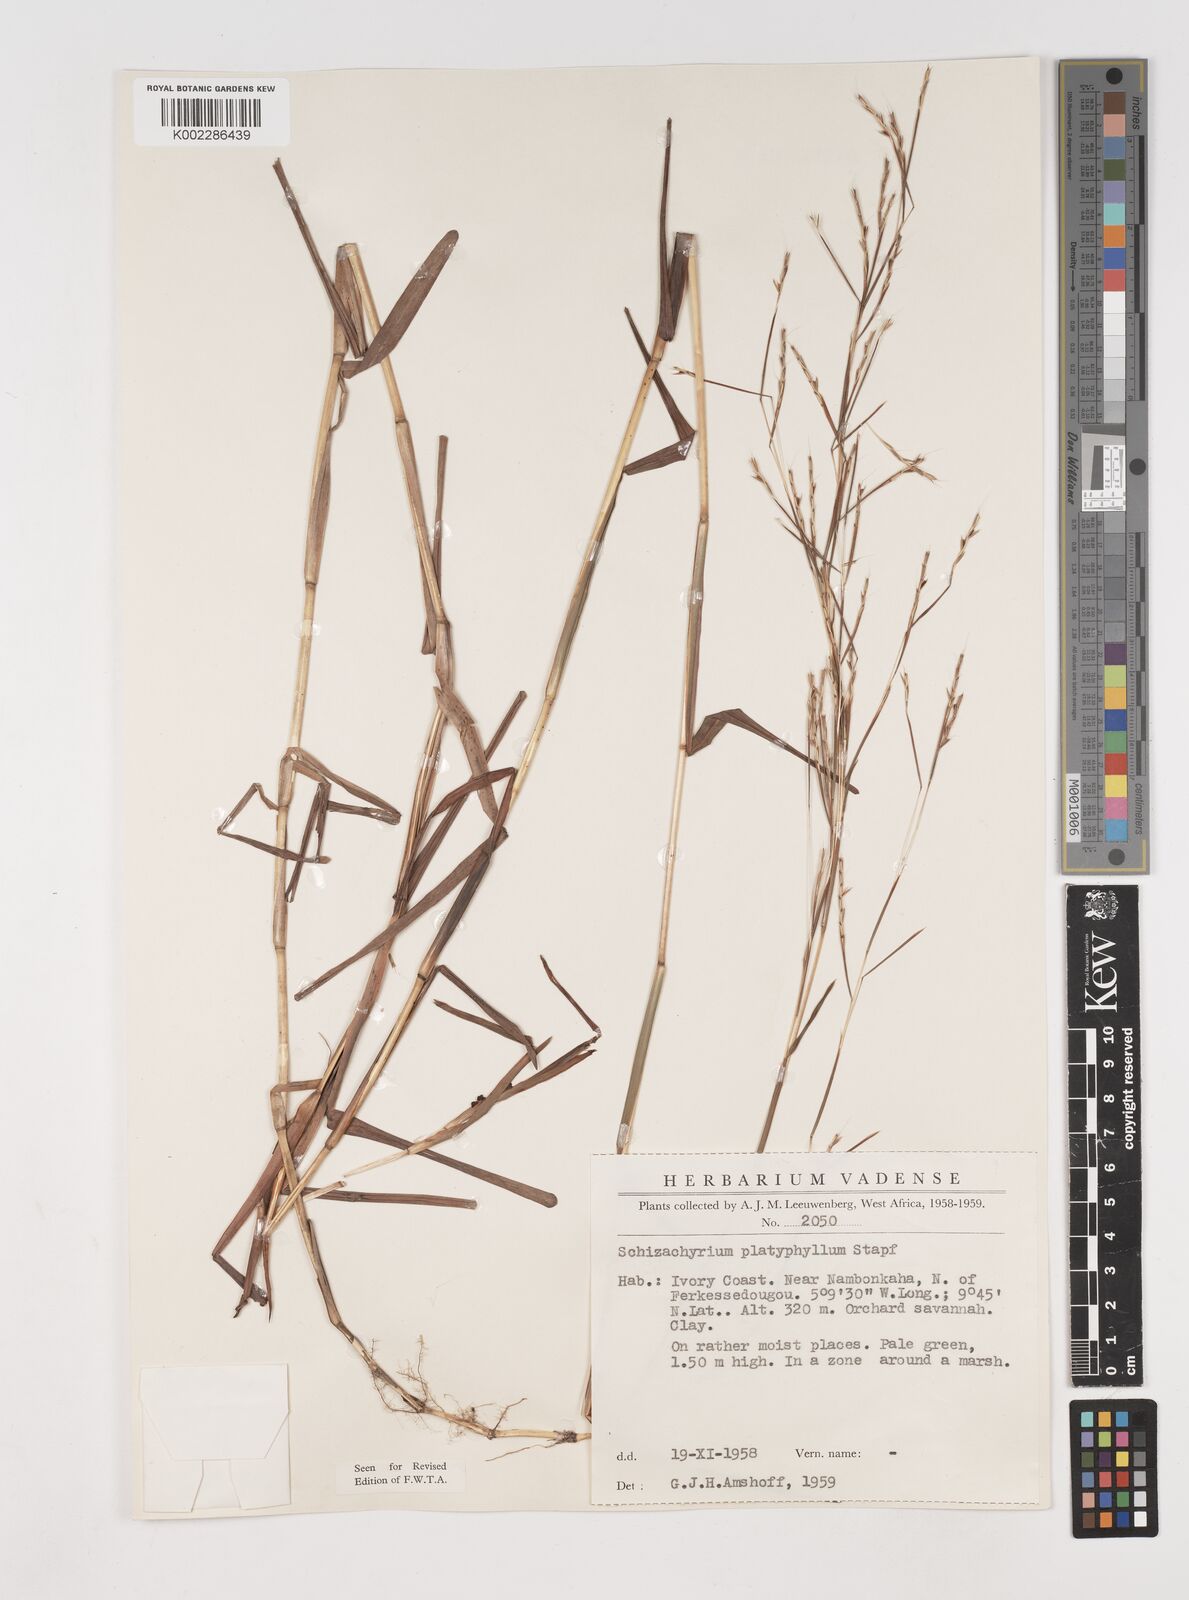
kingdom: Plantae
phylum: Tracheophyta
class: Liliopsida
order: Poales
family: Poaceae
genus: Schizachyrium
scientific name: Schizachyrium platyphyllum
